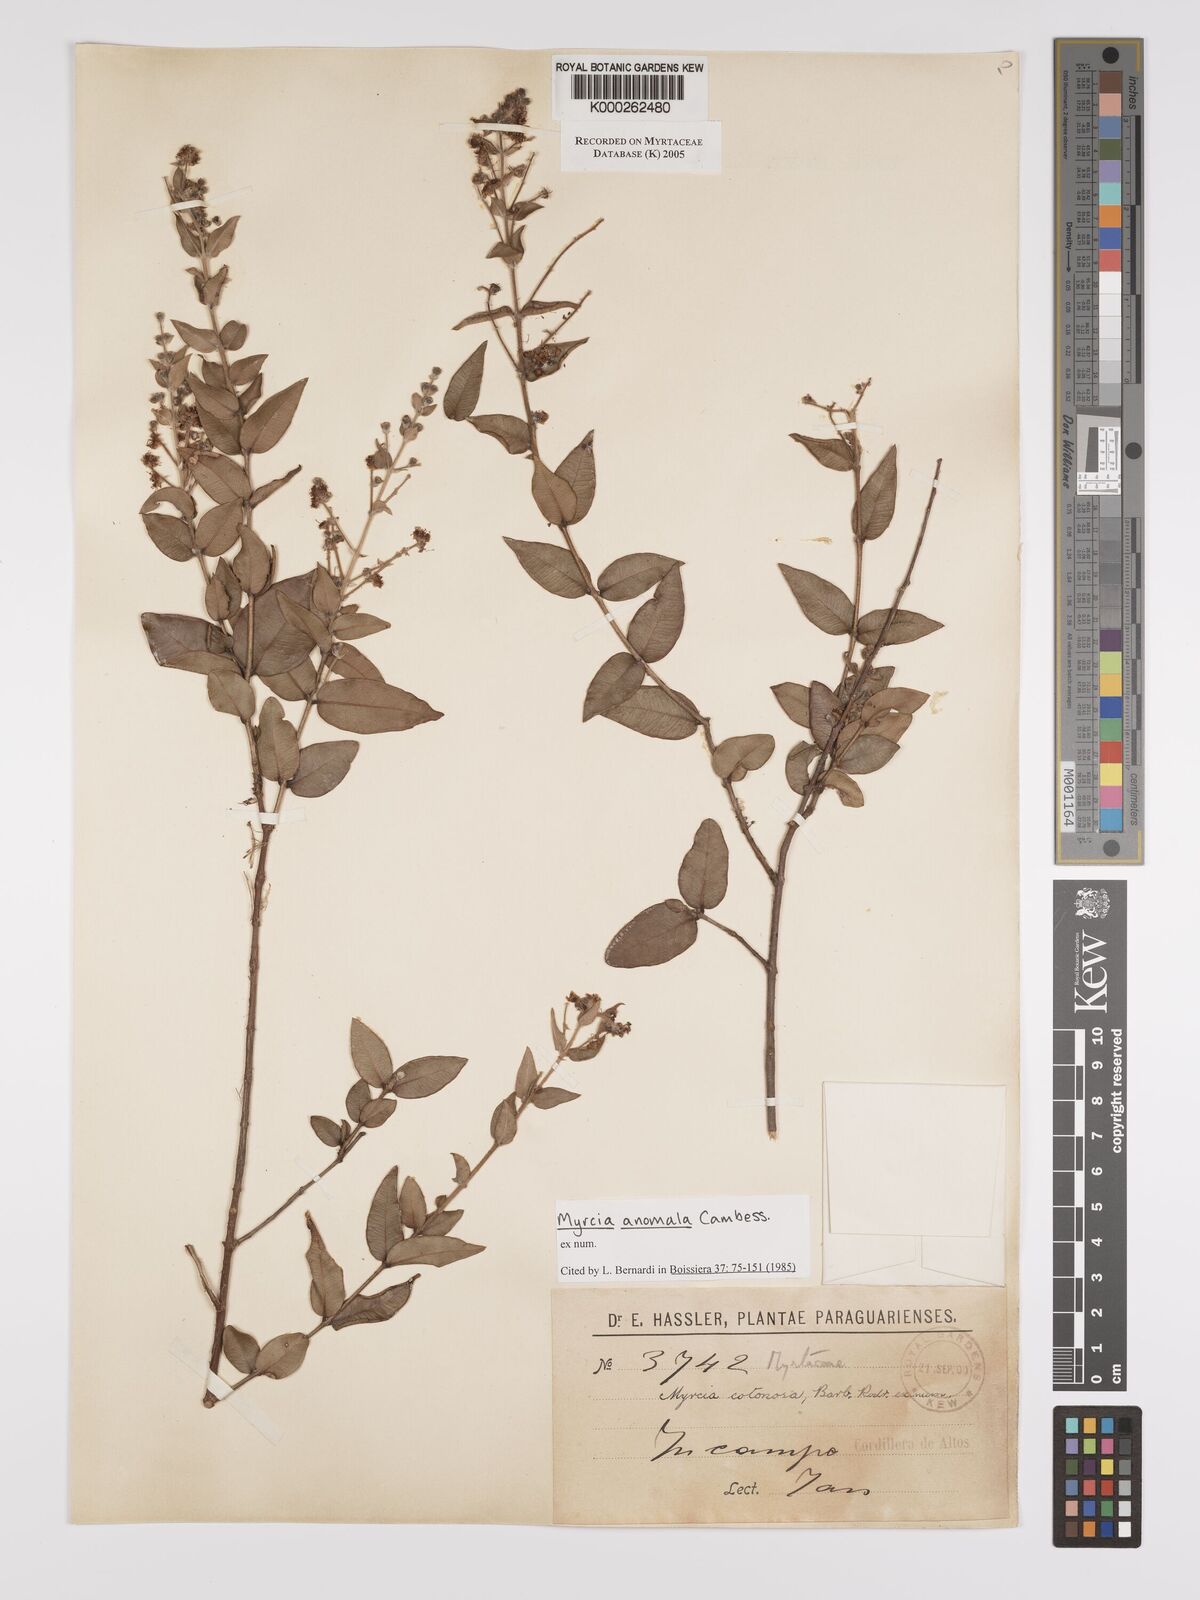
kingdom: Plantae
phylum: Tracheophyta
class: Magnoliopsida
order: Myrtales
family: Myrtaceae
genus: Myrcia
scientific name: Myrcia anomala
